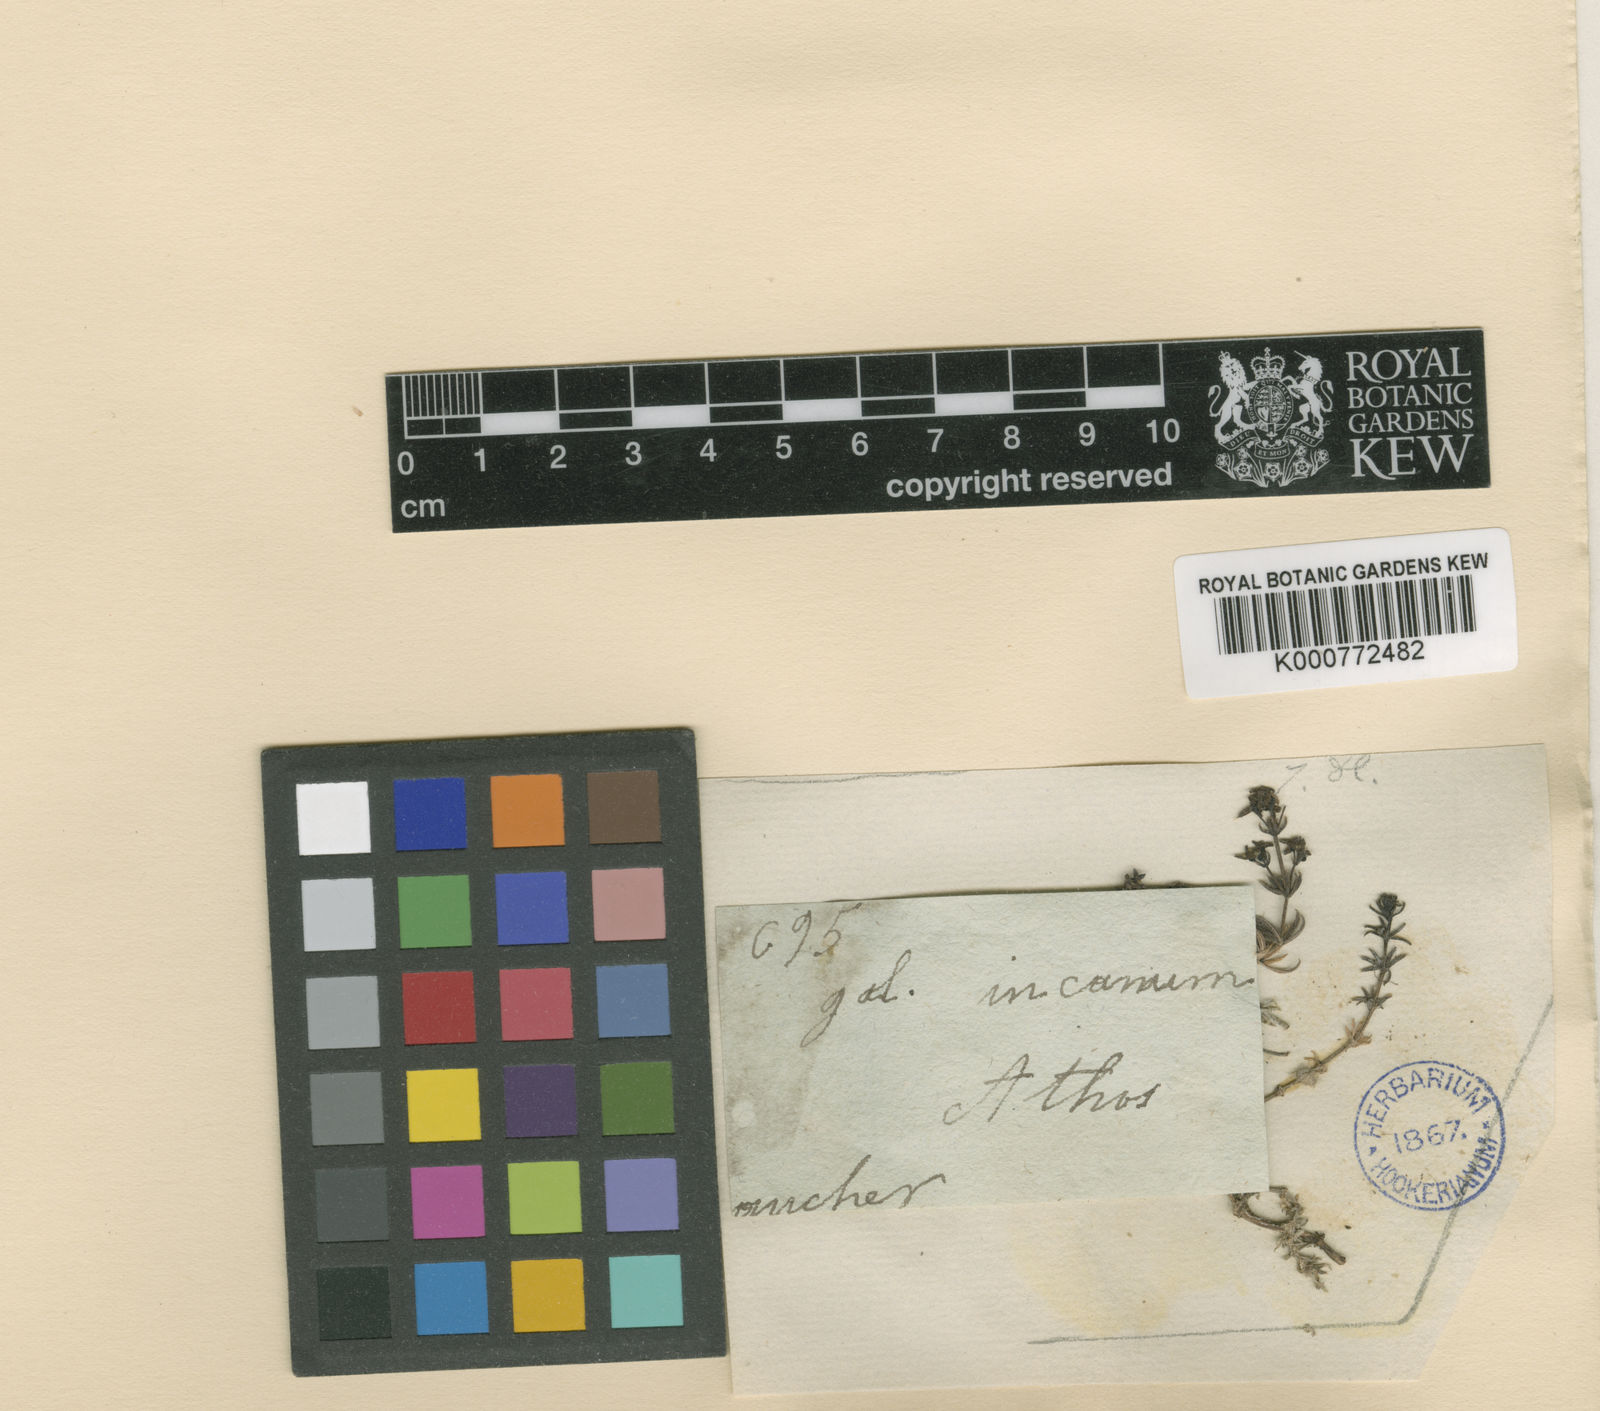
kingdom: Plantae
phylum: Tracheophyta
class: Magnoliopsida
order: Gentianales
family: Rubiaceae
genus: Galium
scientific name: Galium incanum
